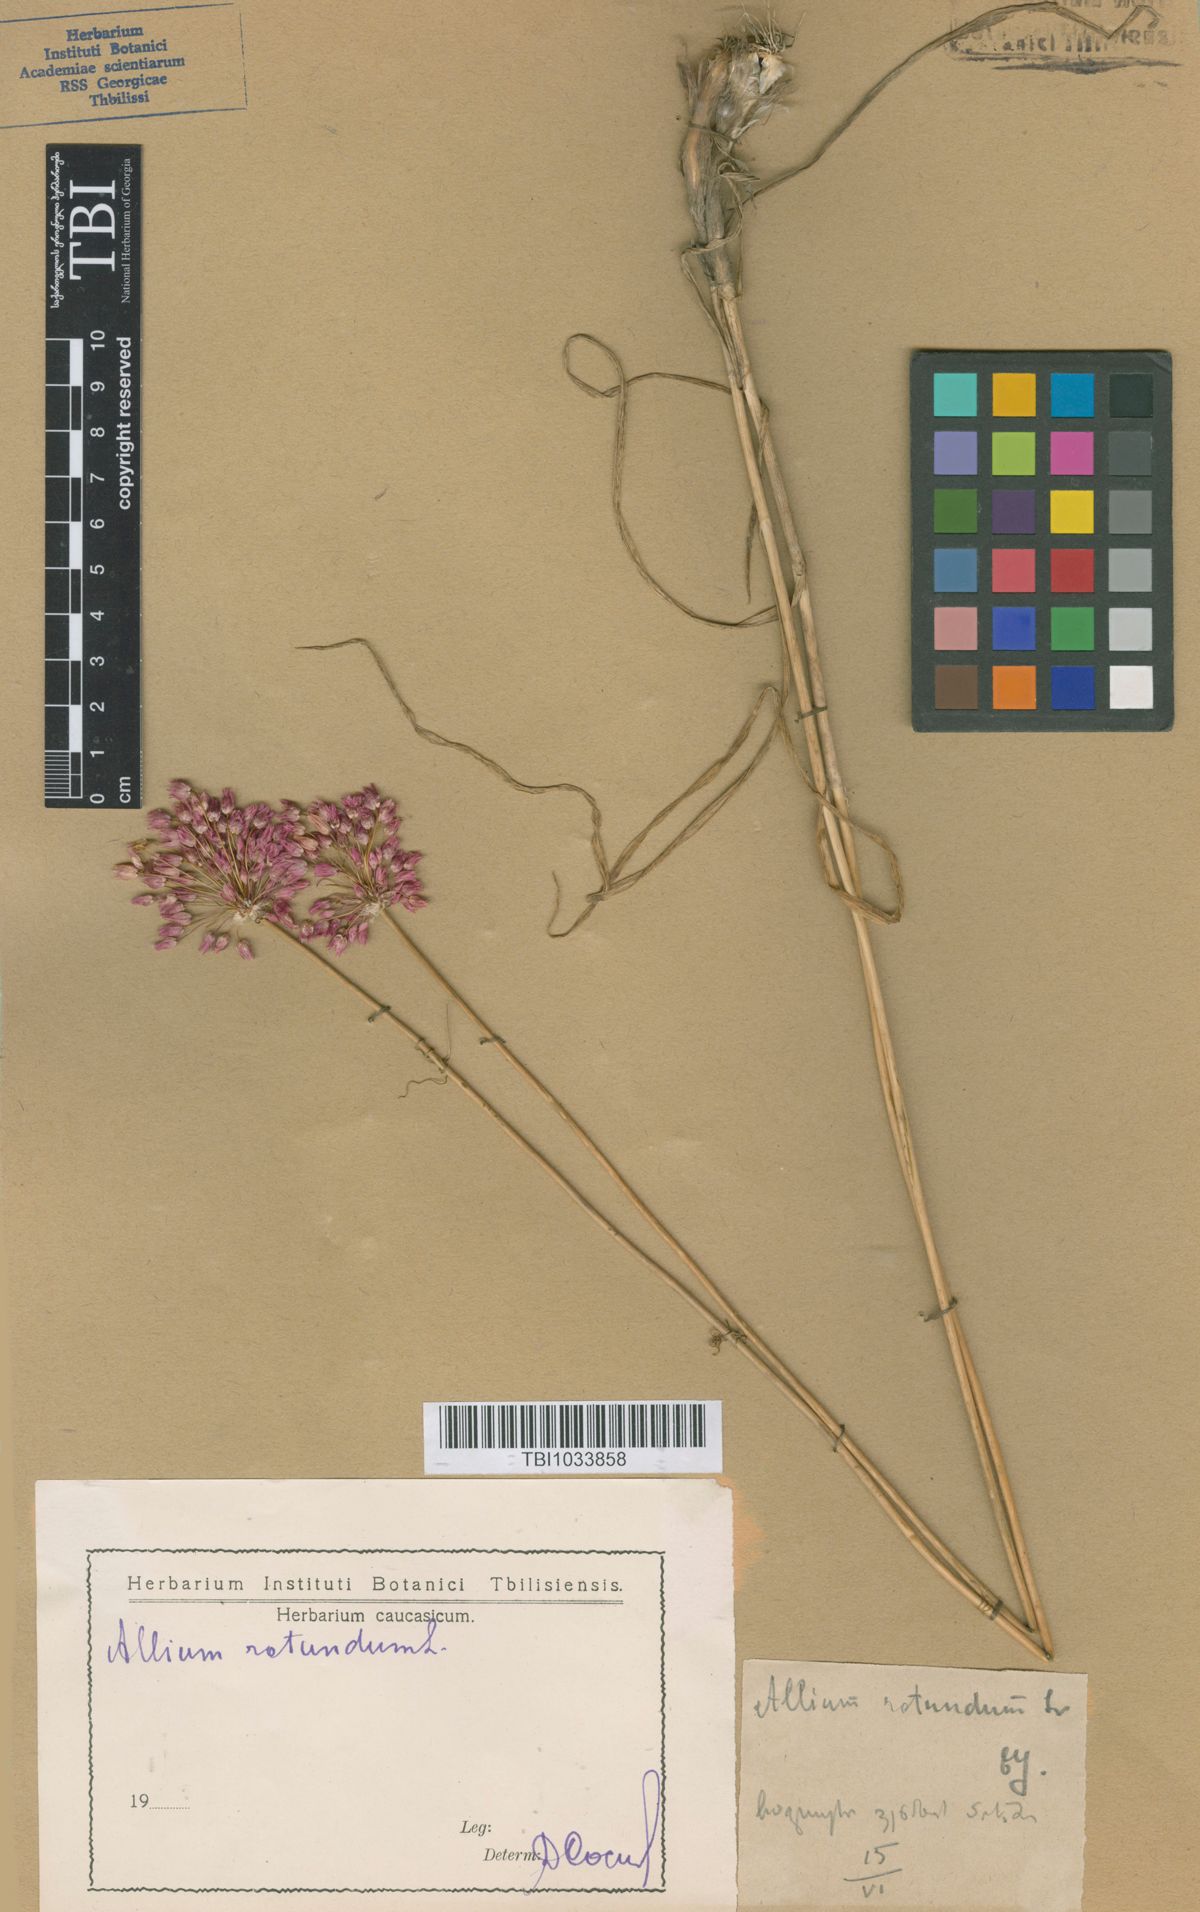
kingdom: Plantae
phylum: Tracheophyta
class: Liliopsida
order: Asparagales
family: Amaryllidaceae
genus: Allium
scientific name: Allium rotundum
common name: Sand leek
